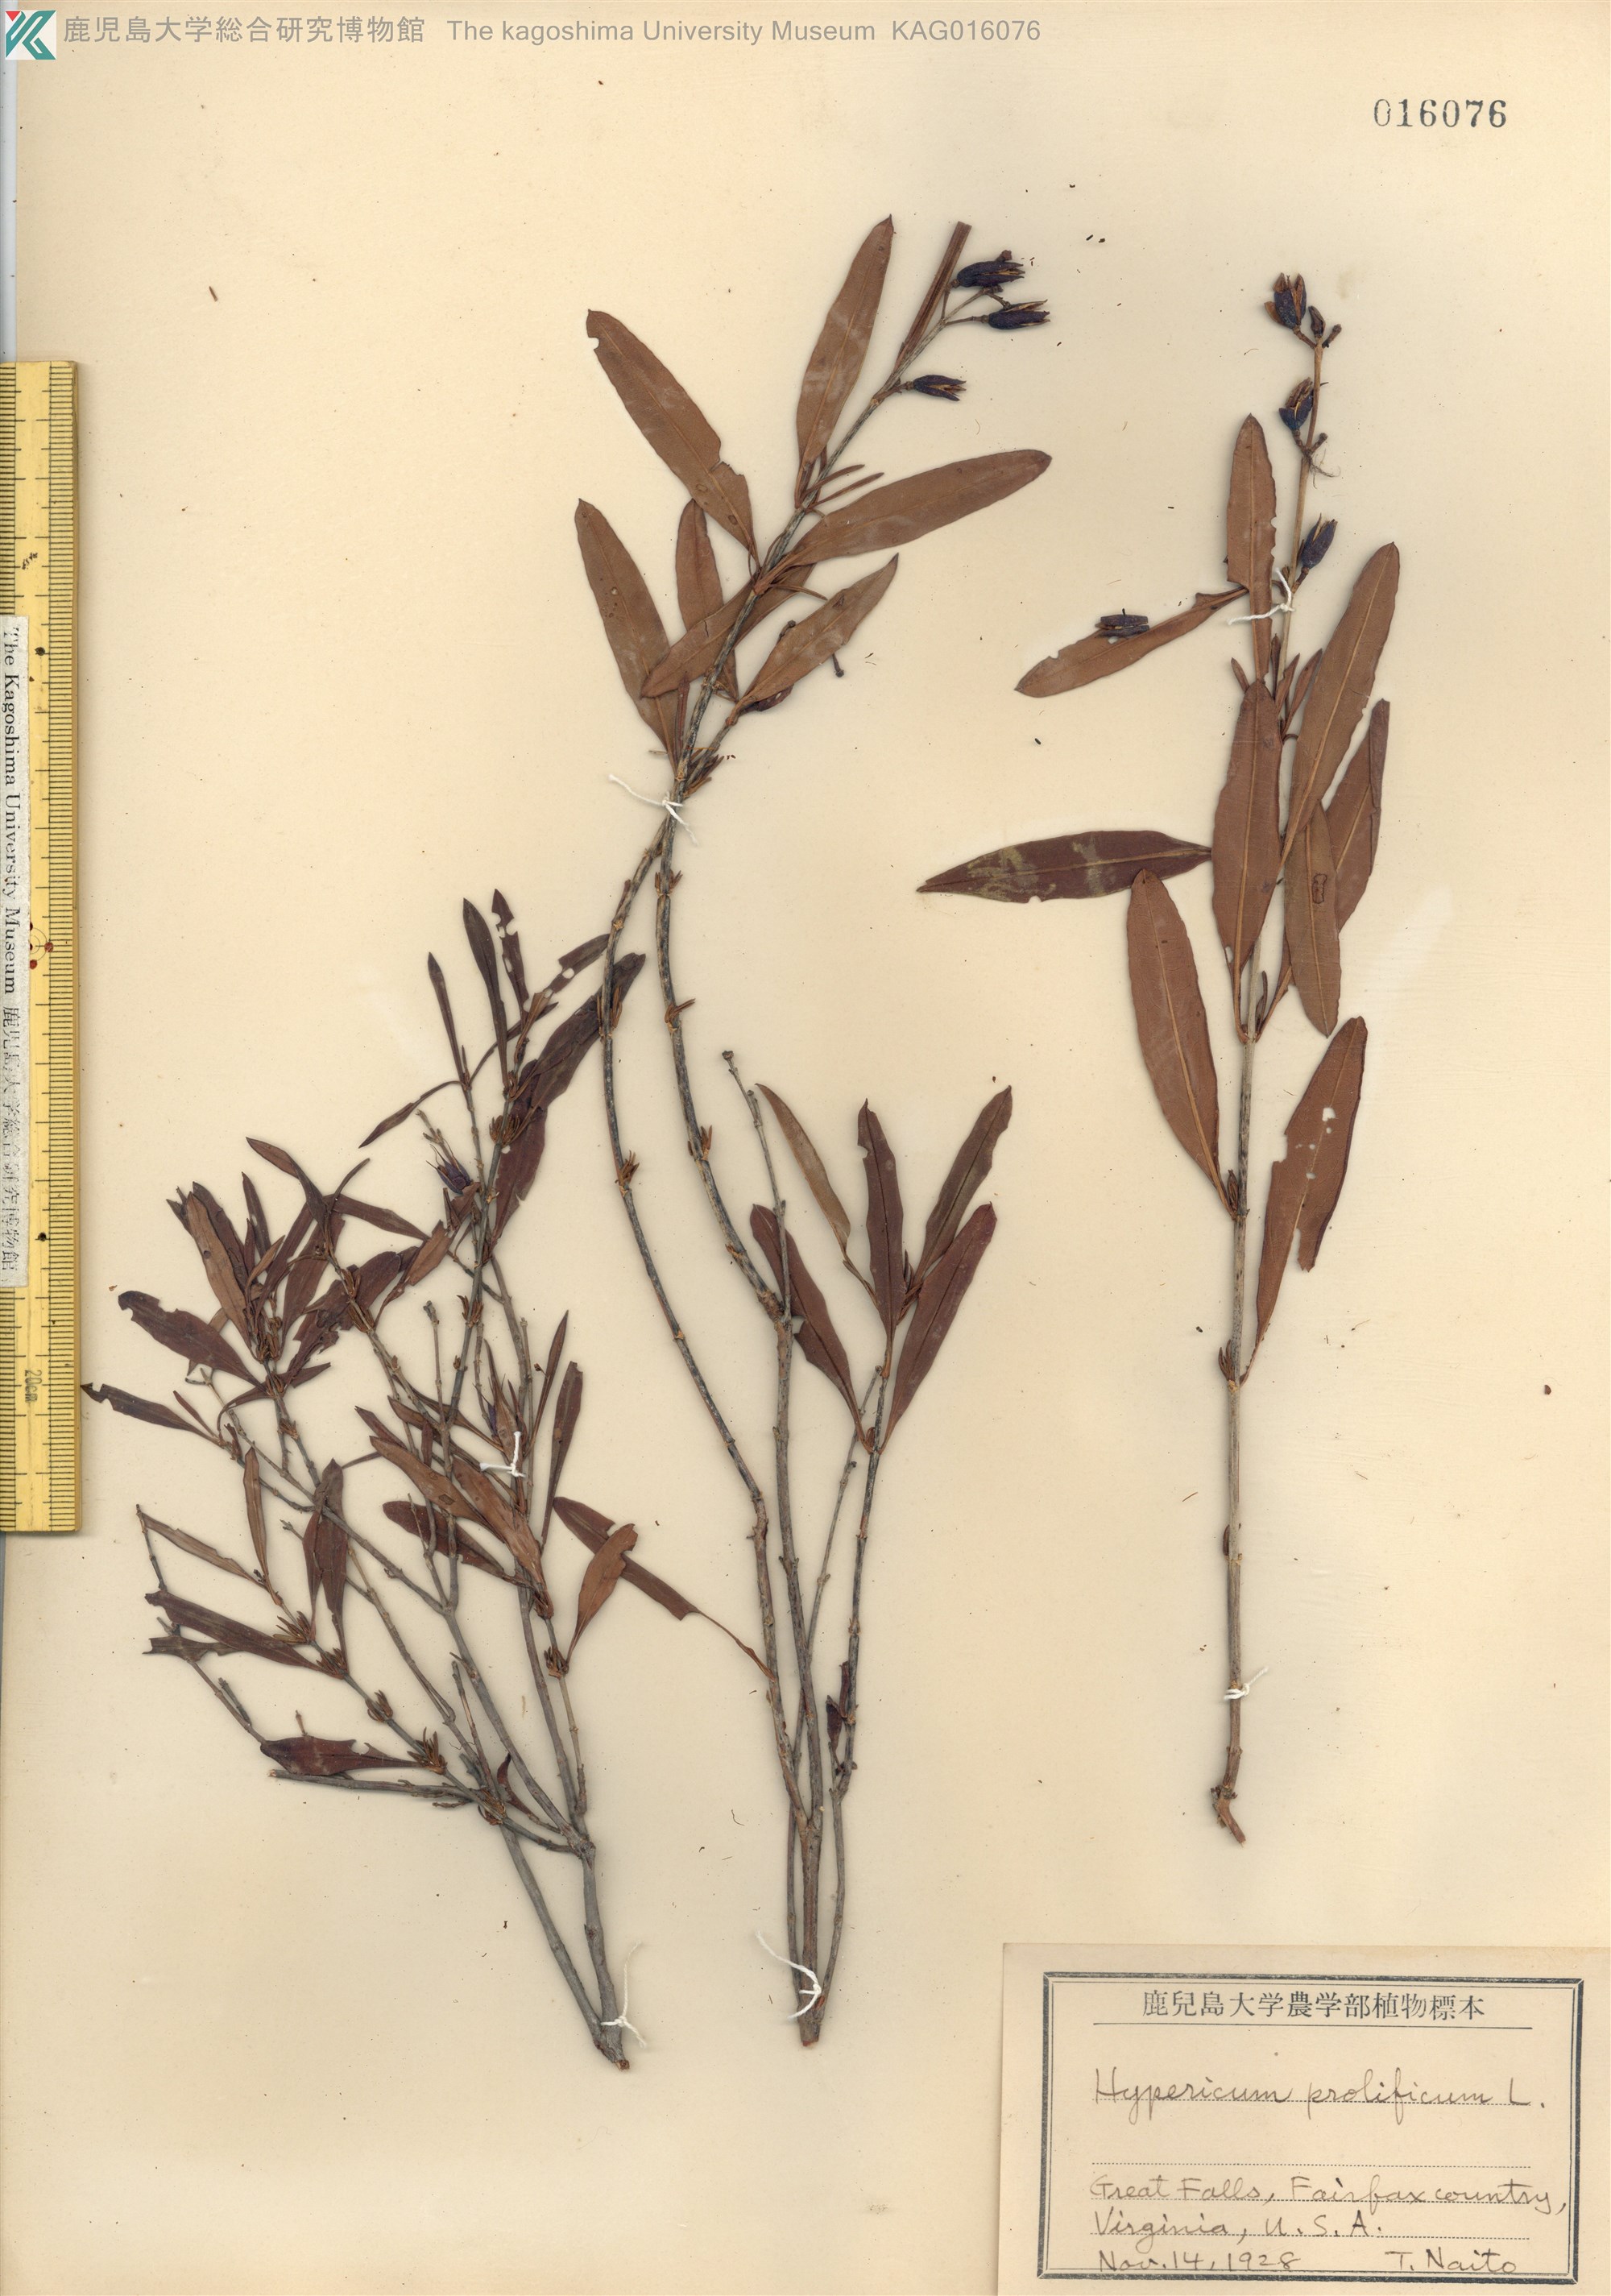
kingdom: Plantae
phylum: Tracheophyta
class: Magnoliopsida
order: Malpighiales
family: Hypericaceae
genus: Hypericum
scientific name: Hypericum prolificum
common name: Shrubby st. john's-wort
